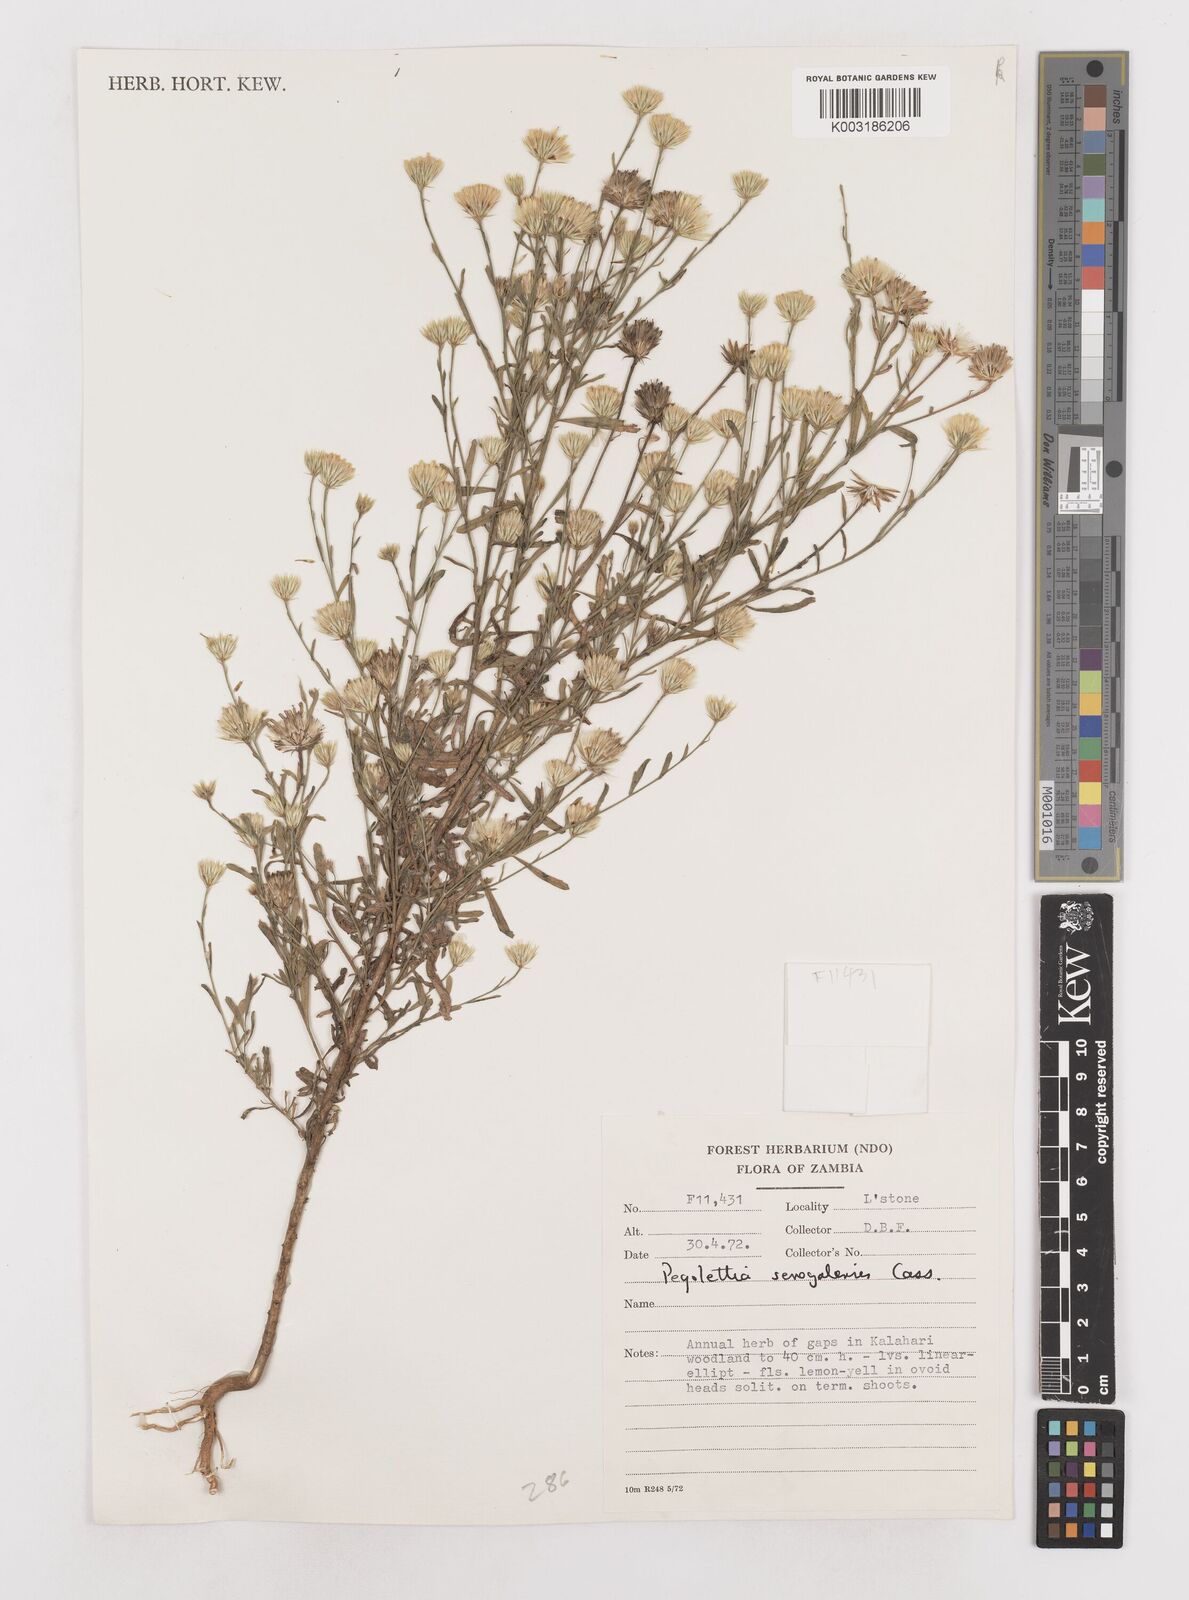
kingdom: Plantae
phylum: Tracheophyta
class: Magnoliopsida
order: Asterales
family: Asteraceae
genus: Pegolettia
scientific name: Pegolettia senegalensis
